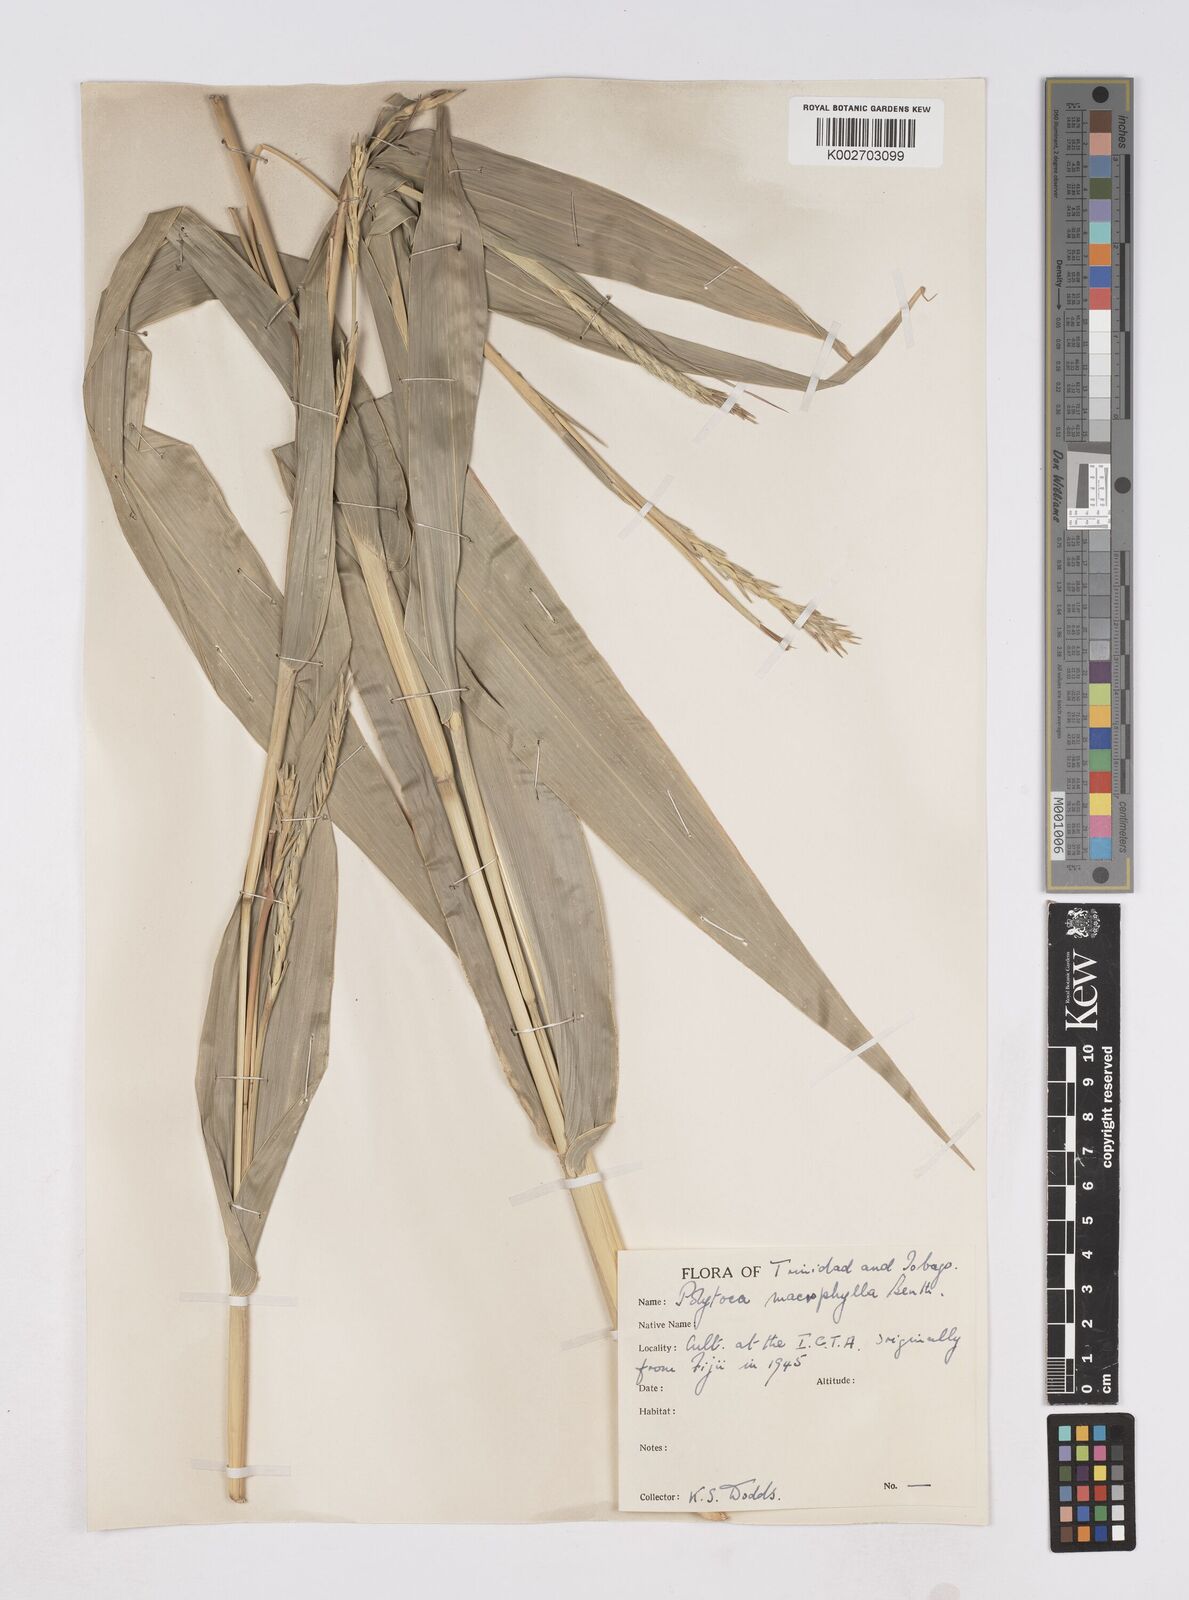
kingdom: Plantae
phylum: Tracheophyta
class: Liliopsida
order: Poales
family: Poaceae
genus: Polytoca
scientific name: Polytoca macrophylla
